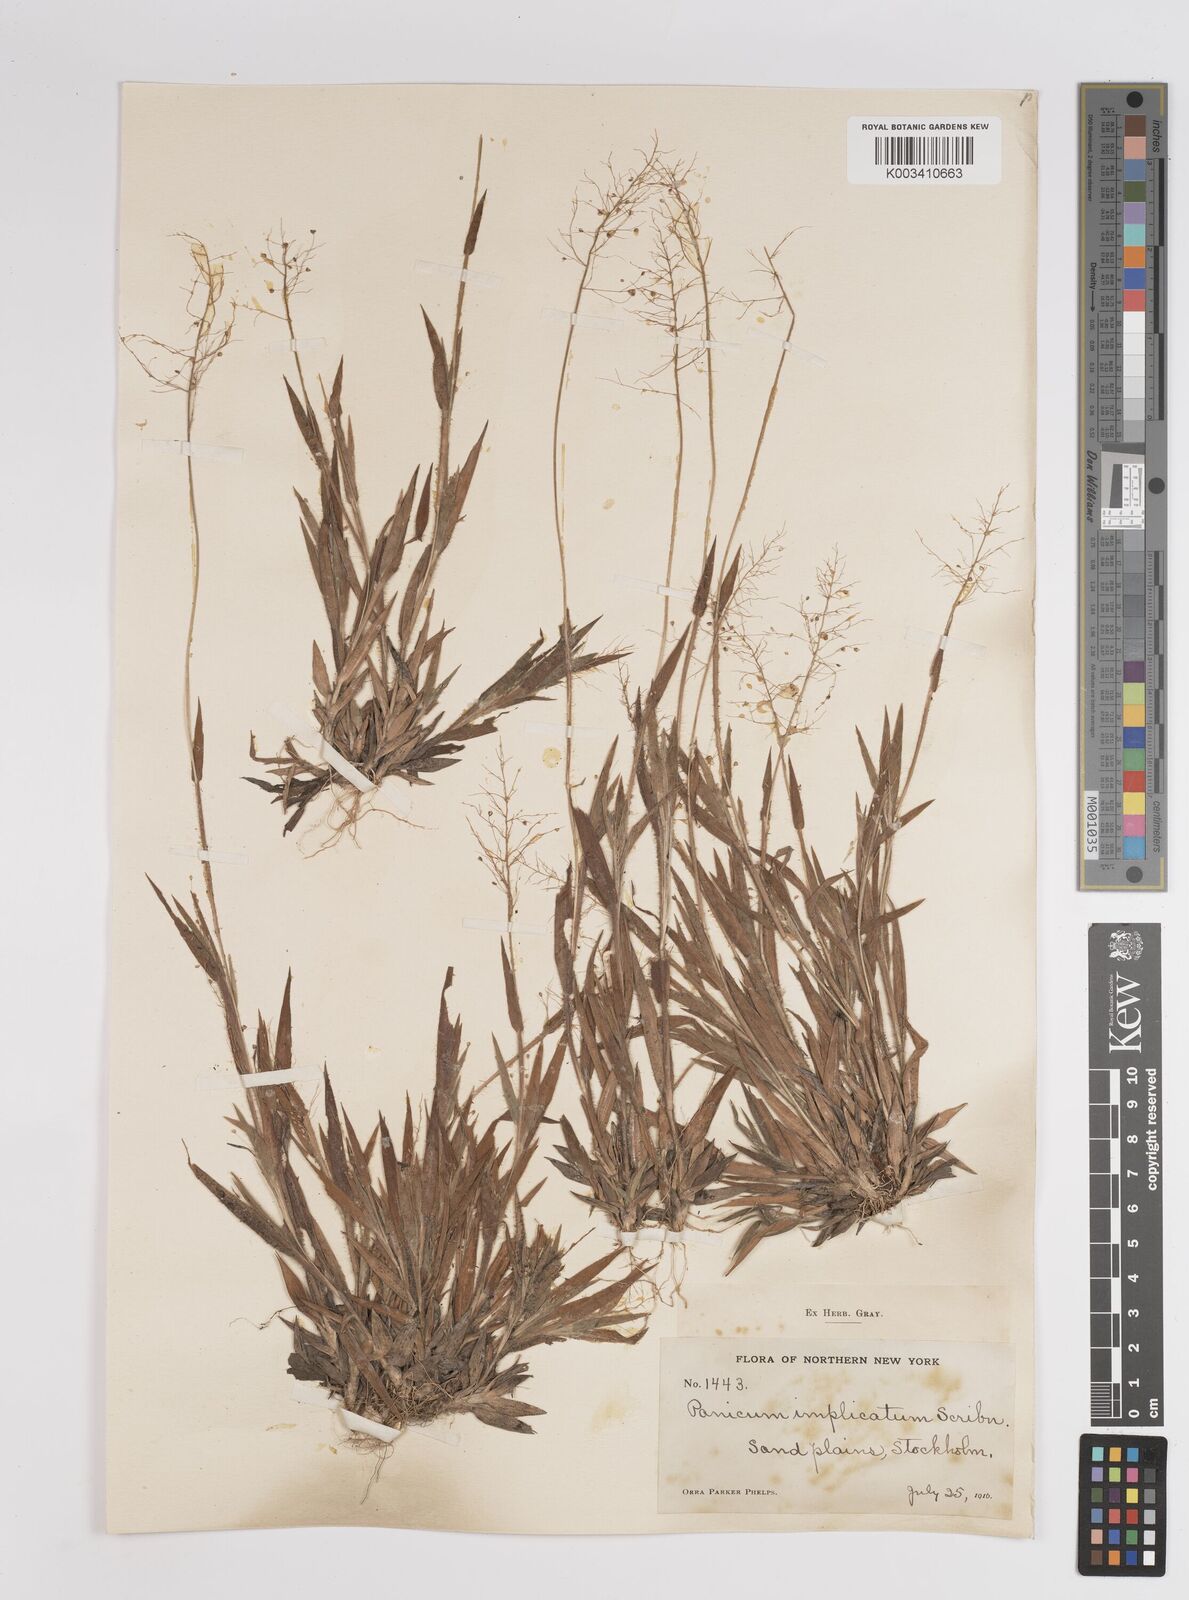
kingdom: Plantae
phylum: Tracheophyta
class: Liliopsida
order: Poales
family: Poaceae
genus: Dichanthelium
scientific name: Dichanthelium implicatum
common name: Slender-stemmed panicgrass
